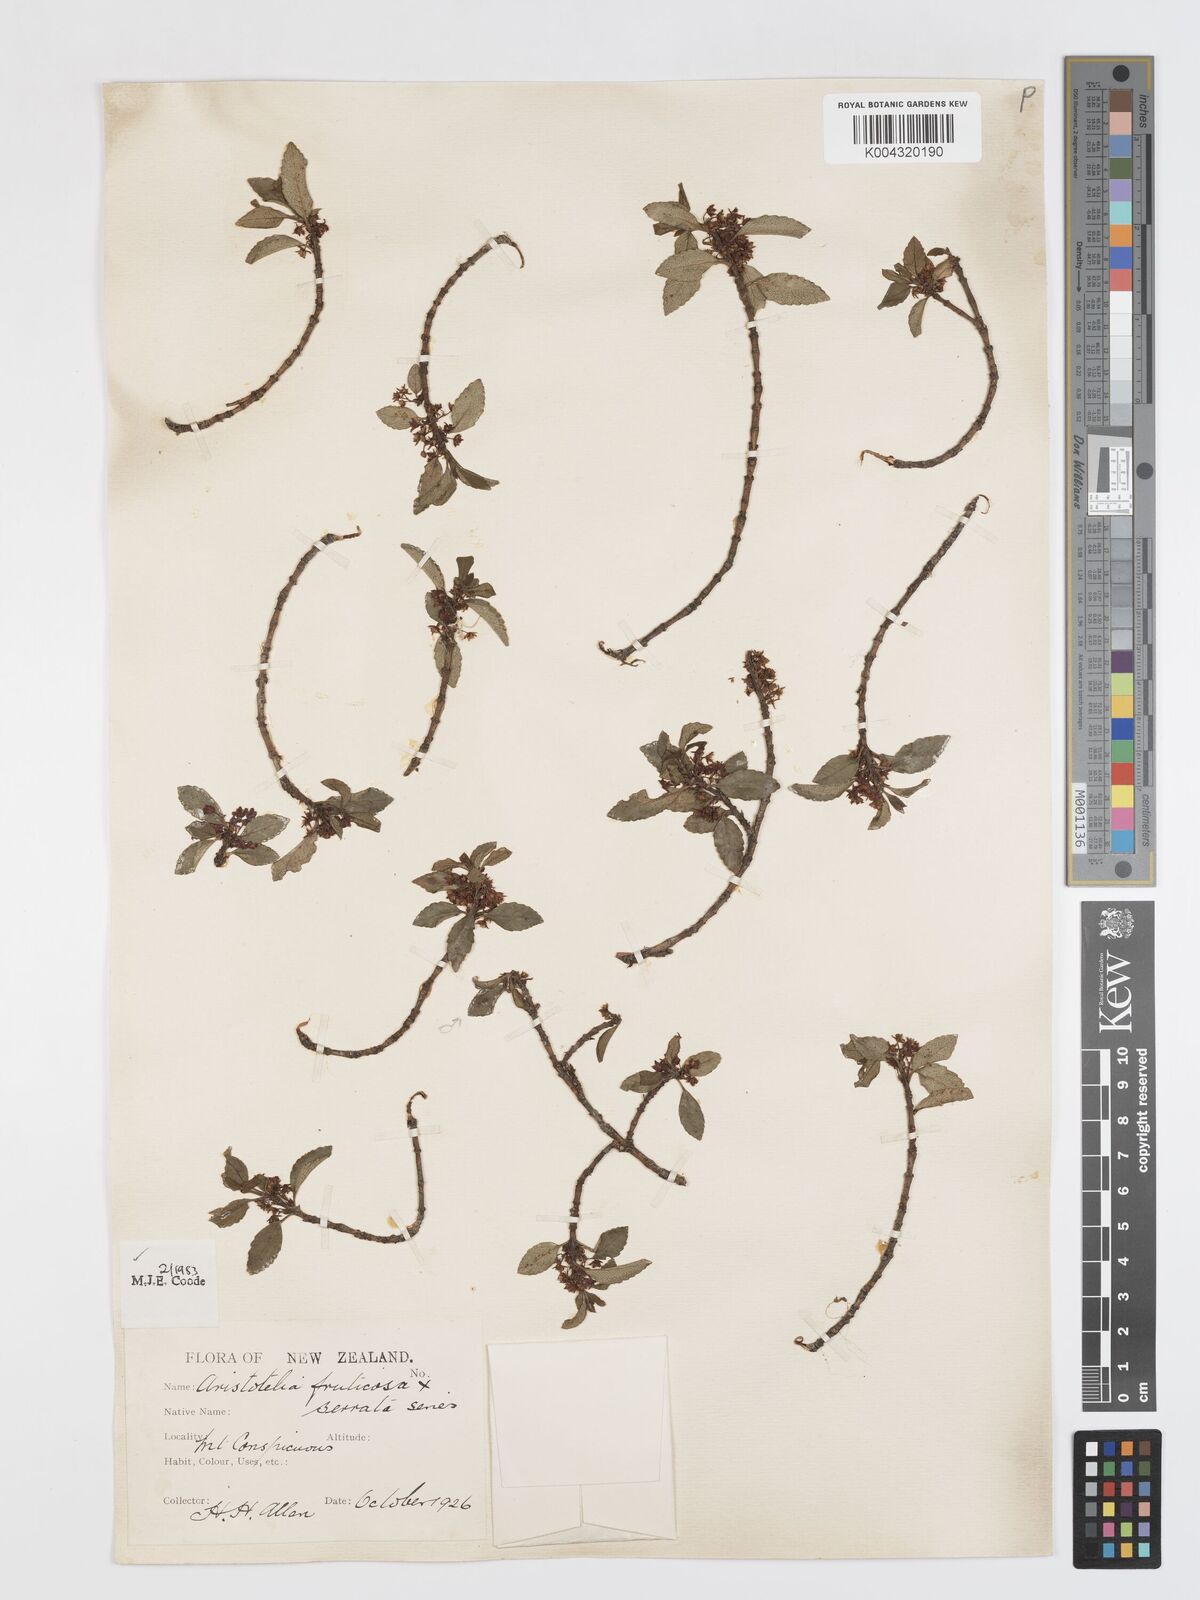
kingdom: Plantae
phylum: Tracheophyta
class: Magnoliopsida
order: Oxalidales
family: Elaeocarpaceae
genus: Aristotelia
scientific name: Aristotelia fruticosa
